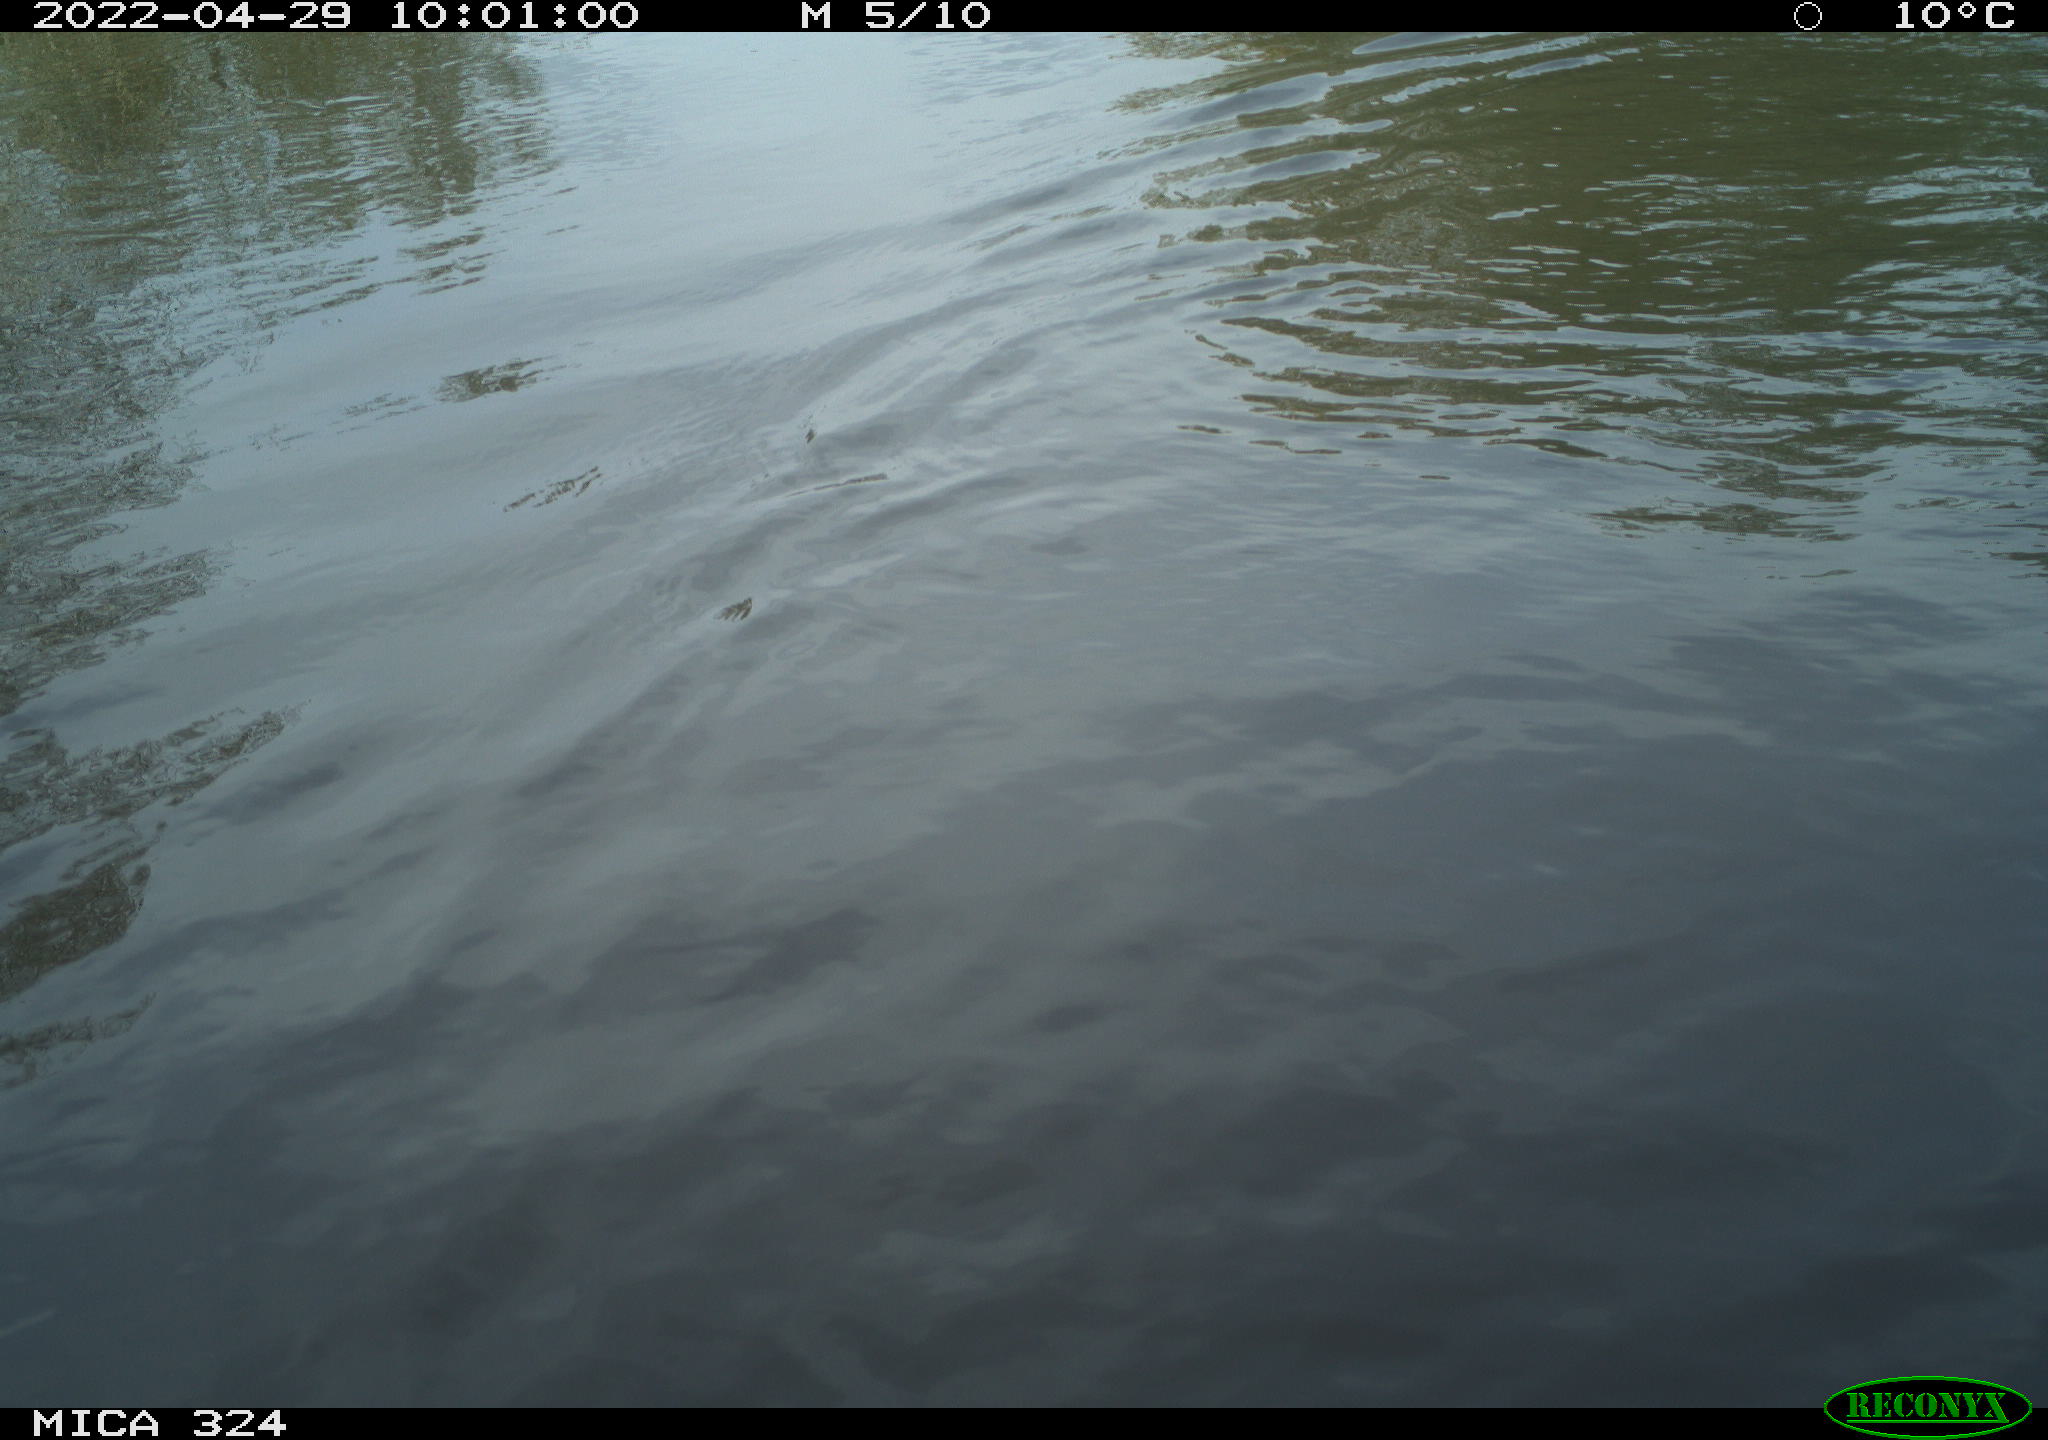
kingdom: Animalia
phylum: Chordata
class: Aves
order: Anseriformes
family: Anatidae
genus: Anas
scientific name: Anas
